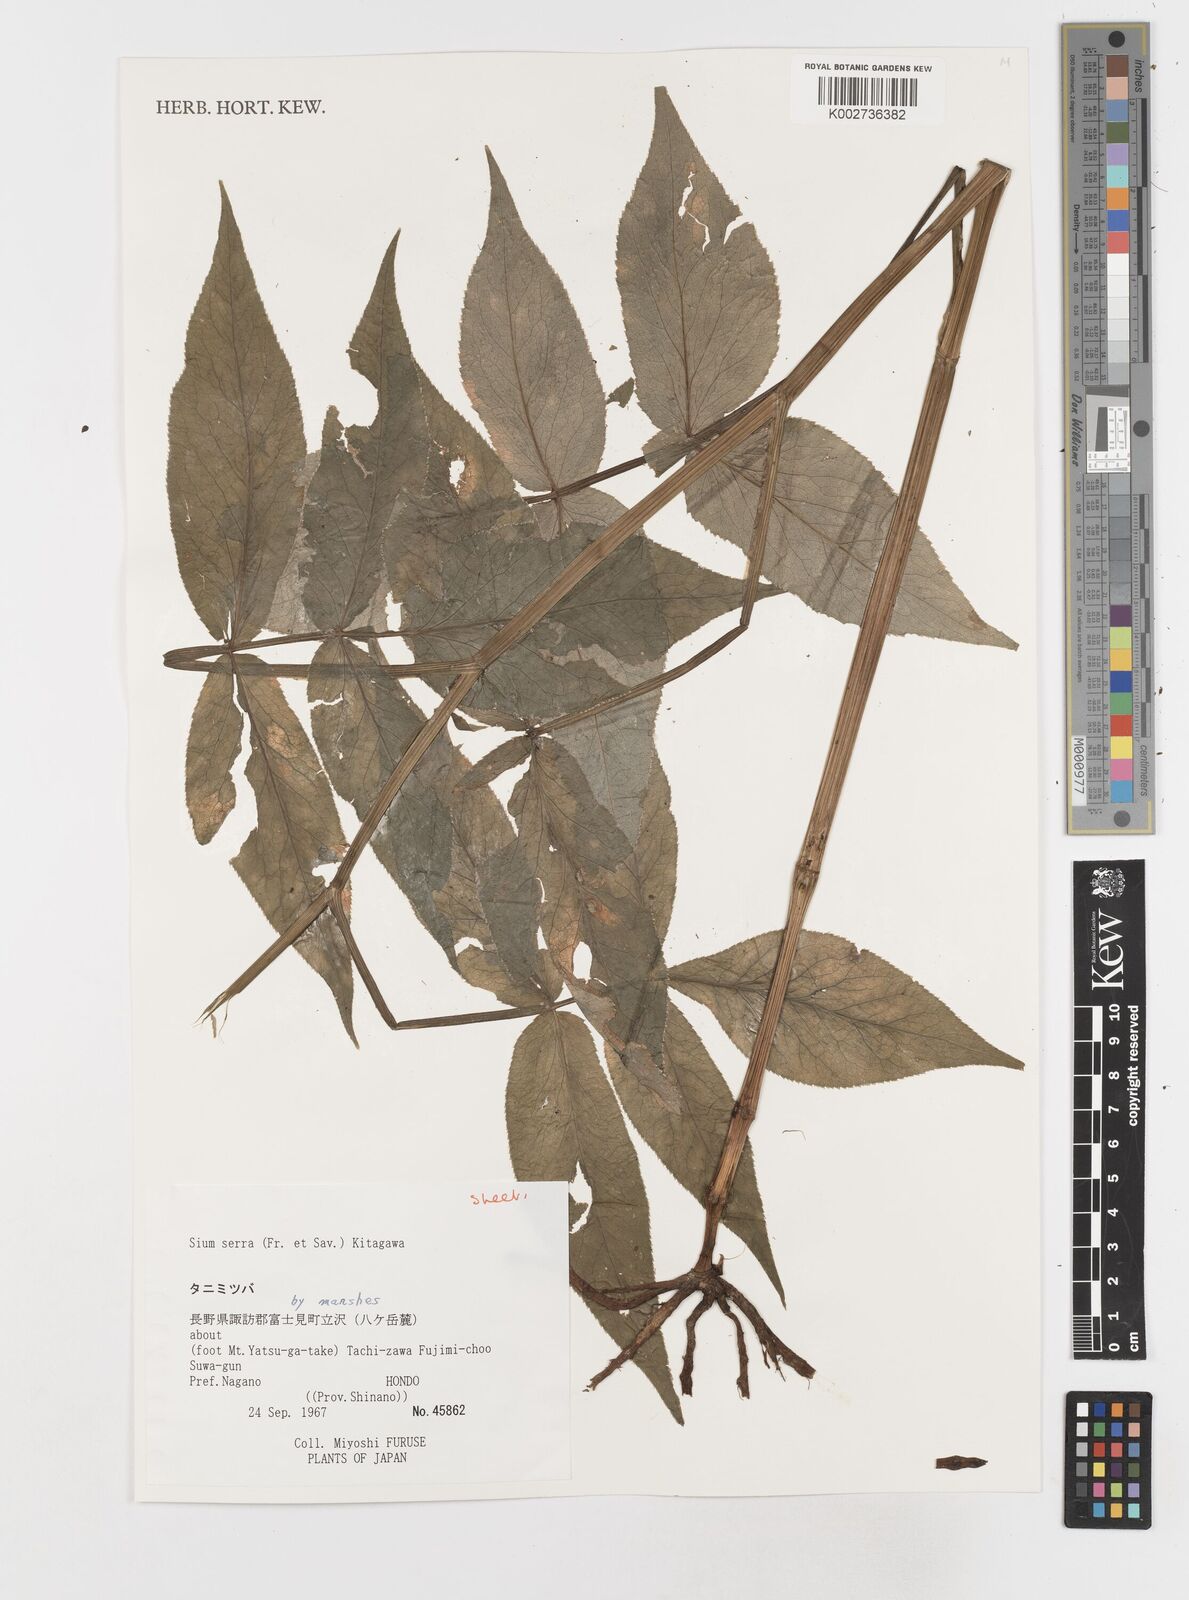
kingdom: Plantae
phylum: Tracheophyta
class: Magnoliopsida
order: Apiales
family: Apiaceae
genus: Sium
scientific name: Sium serra
